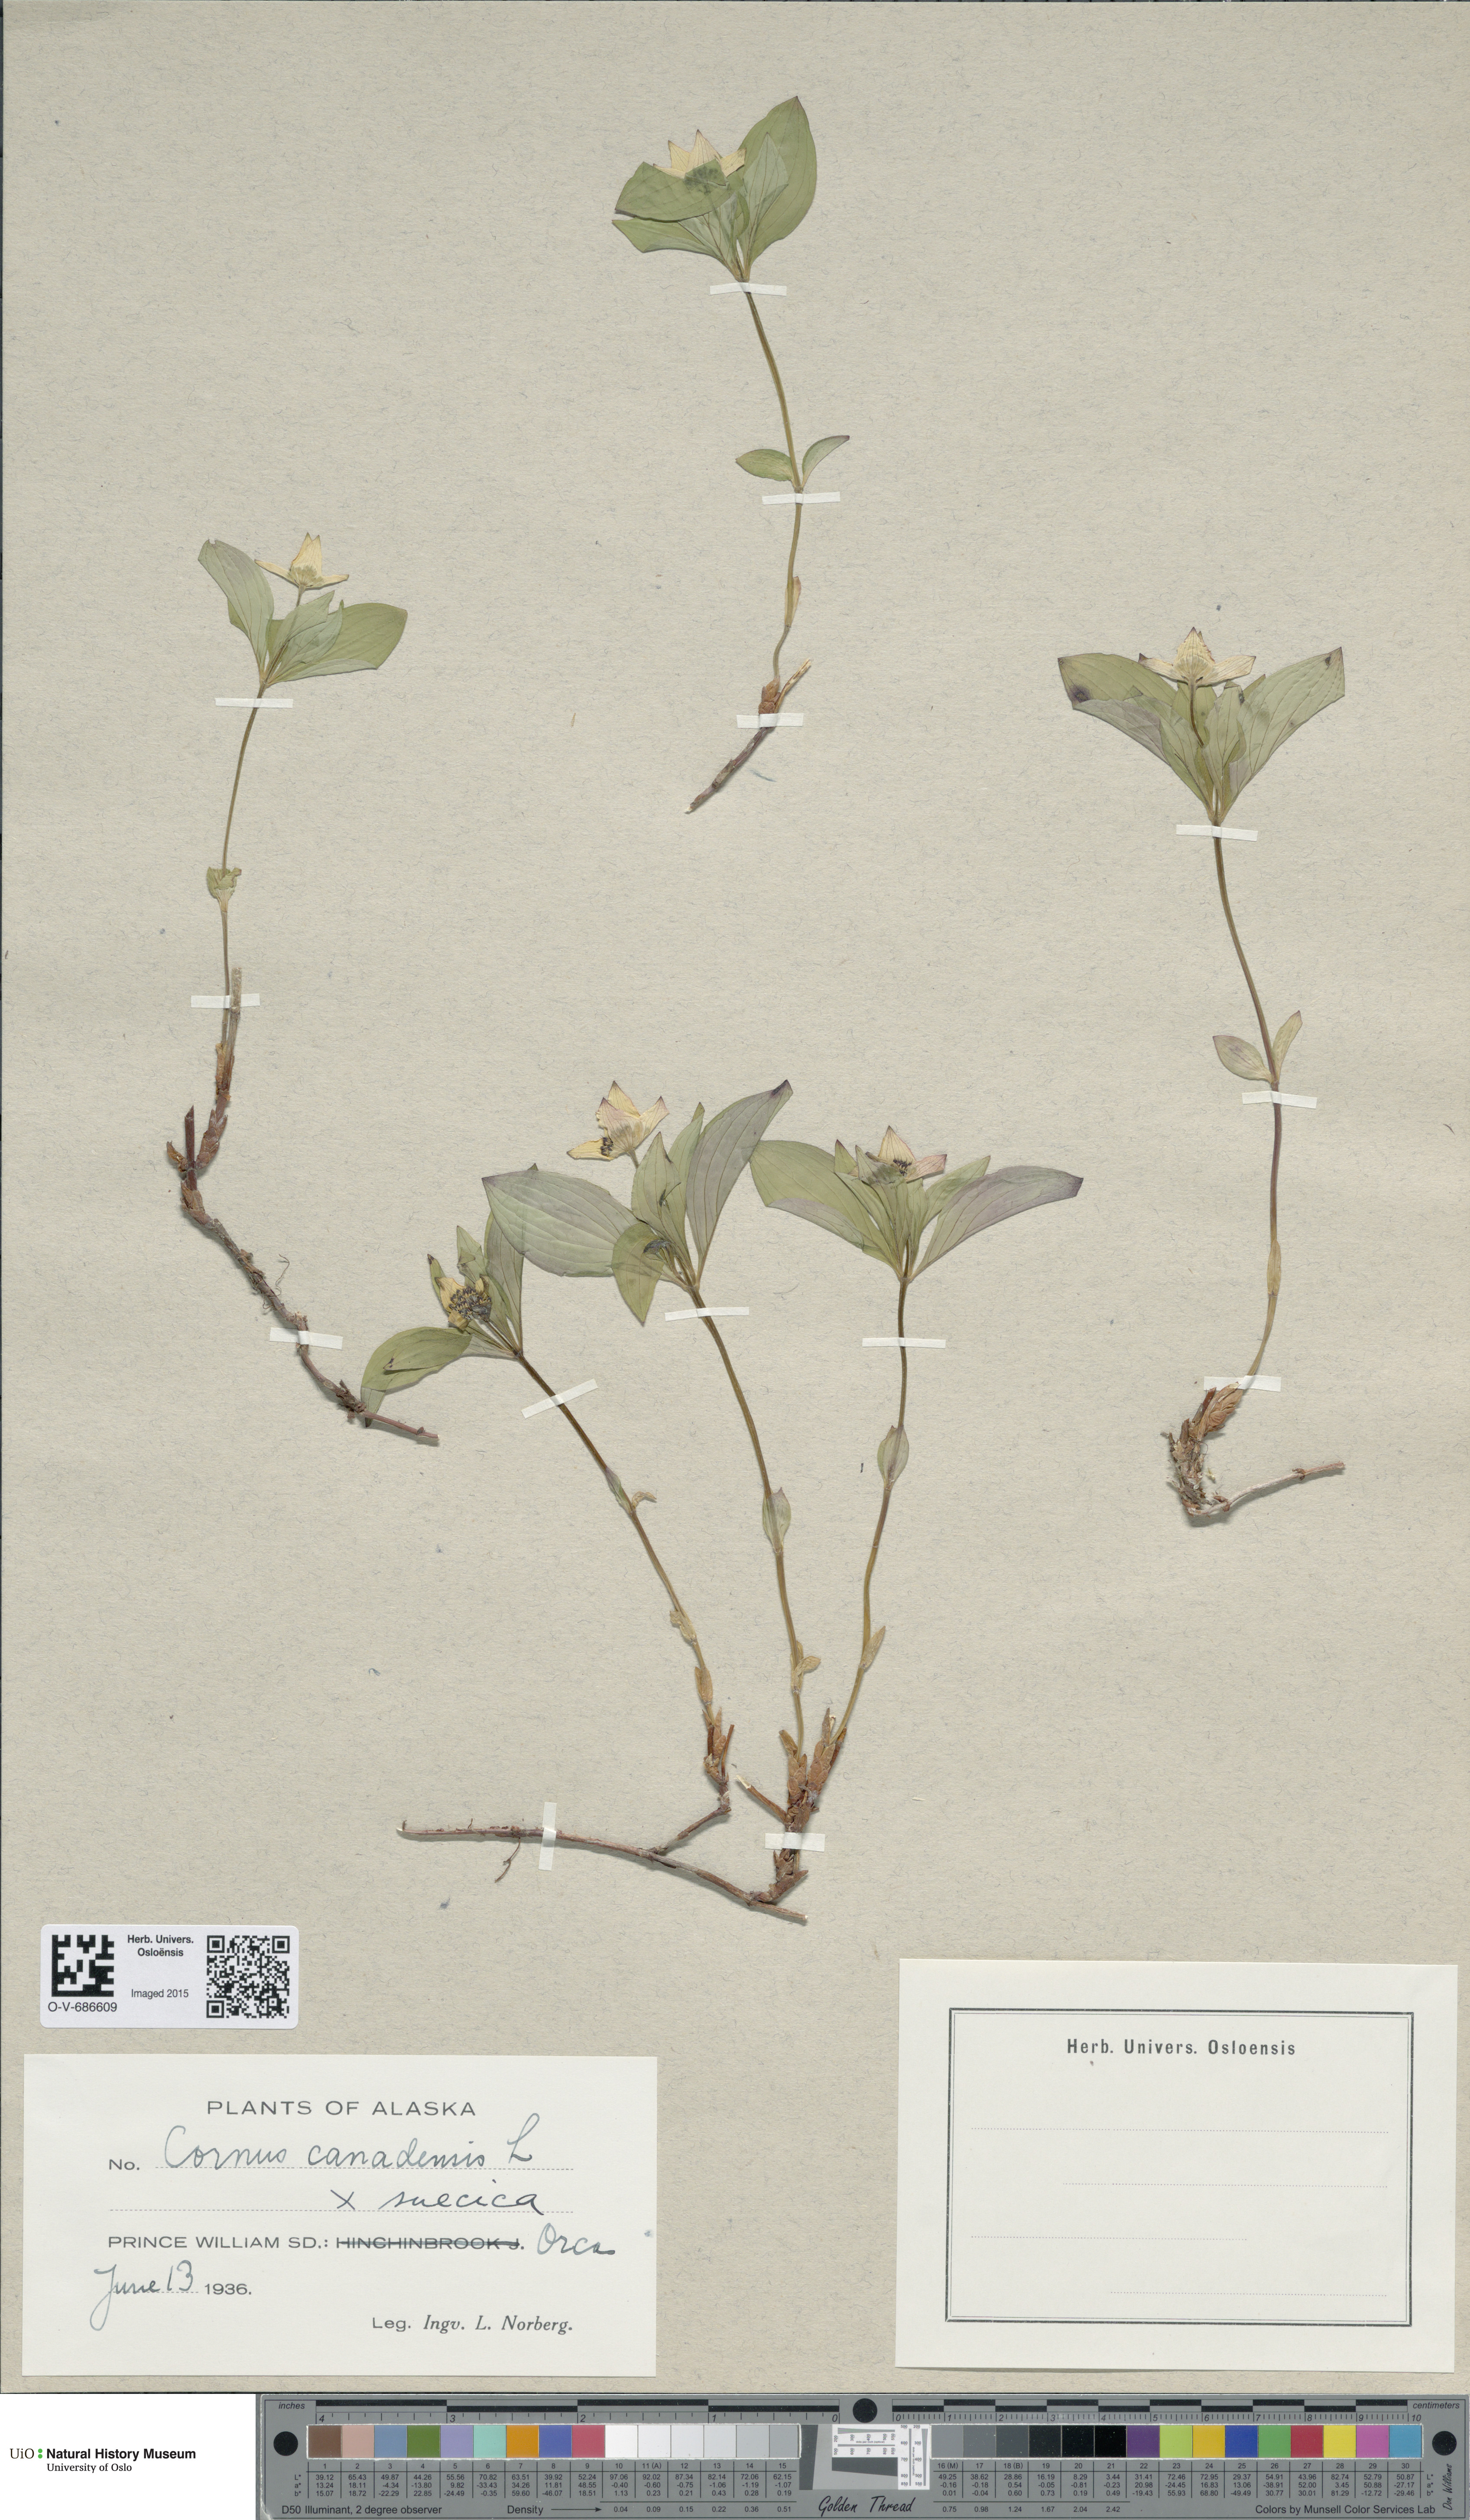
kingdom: Plantae
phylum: Tracheophyta
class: Magnoliopsida
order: Cornales
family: Cornaceae
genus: Cornus
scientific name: Cornus
